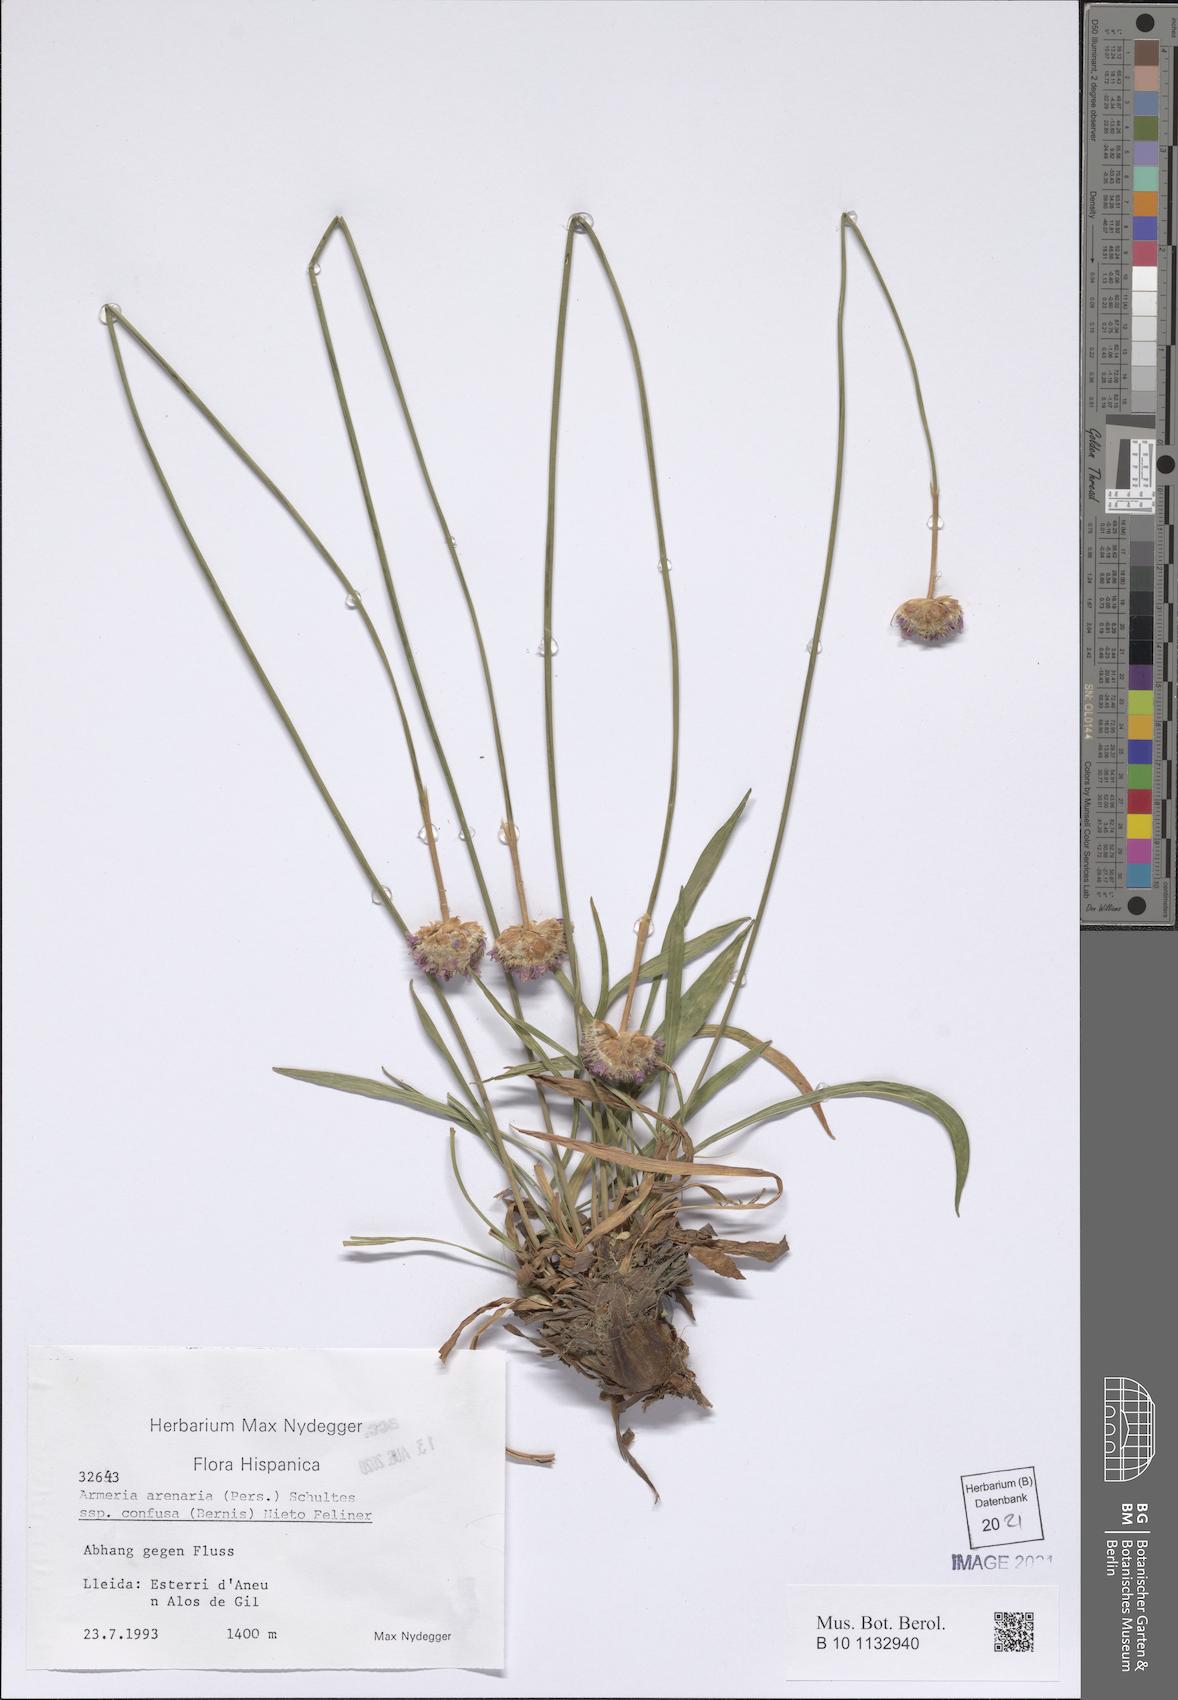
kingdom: Plantae
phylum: Tracheophyta
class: Magnoliopsida
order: Caryophyllales
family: Plumbaginaceae
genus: Armeria
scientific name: Armeria arenaria
